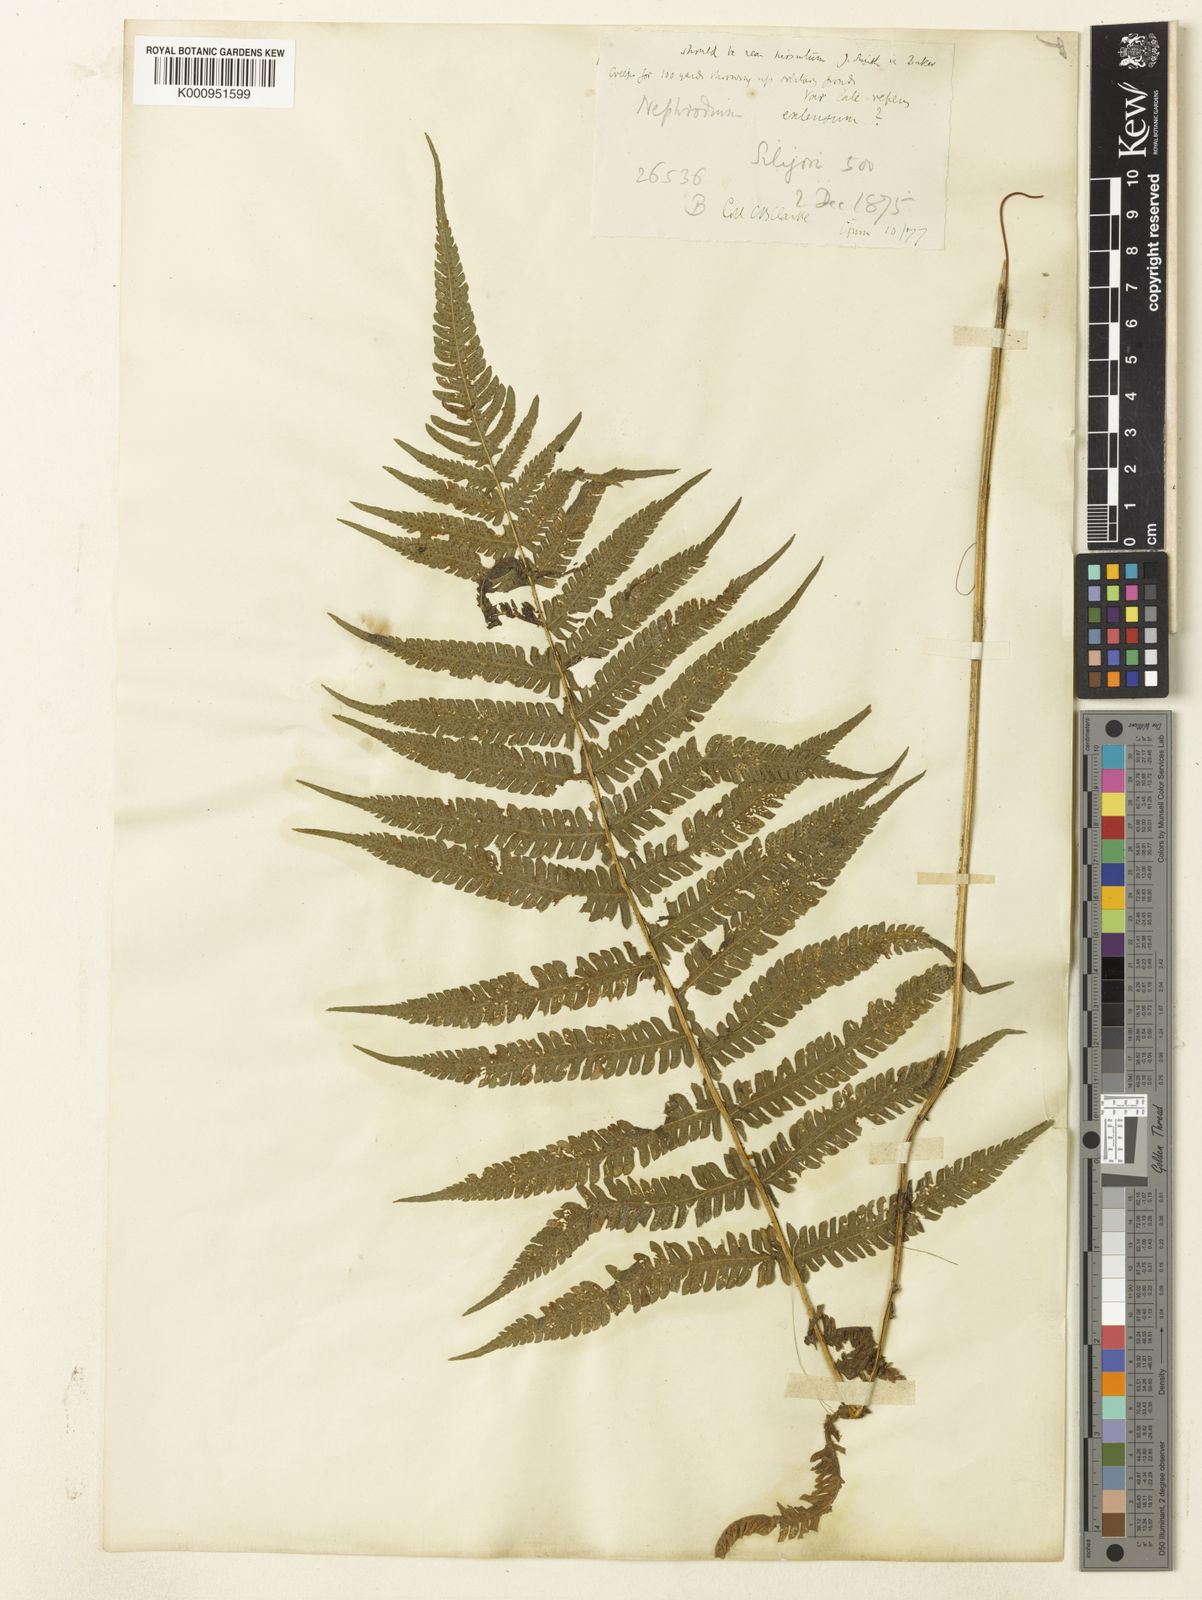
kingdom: Plantae
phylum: Tracheophyta
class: Polypodiopsida
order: Polypodiales
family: Thelypteridaceae
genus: Christella
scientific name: Christella procera
